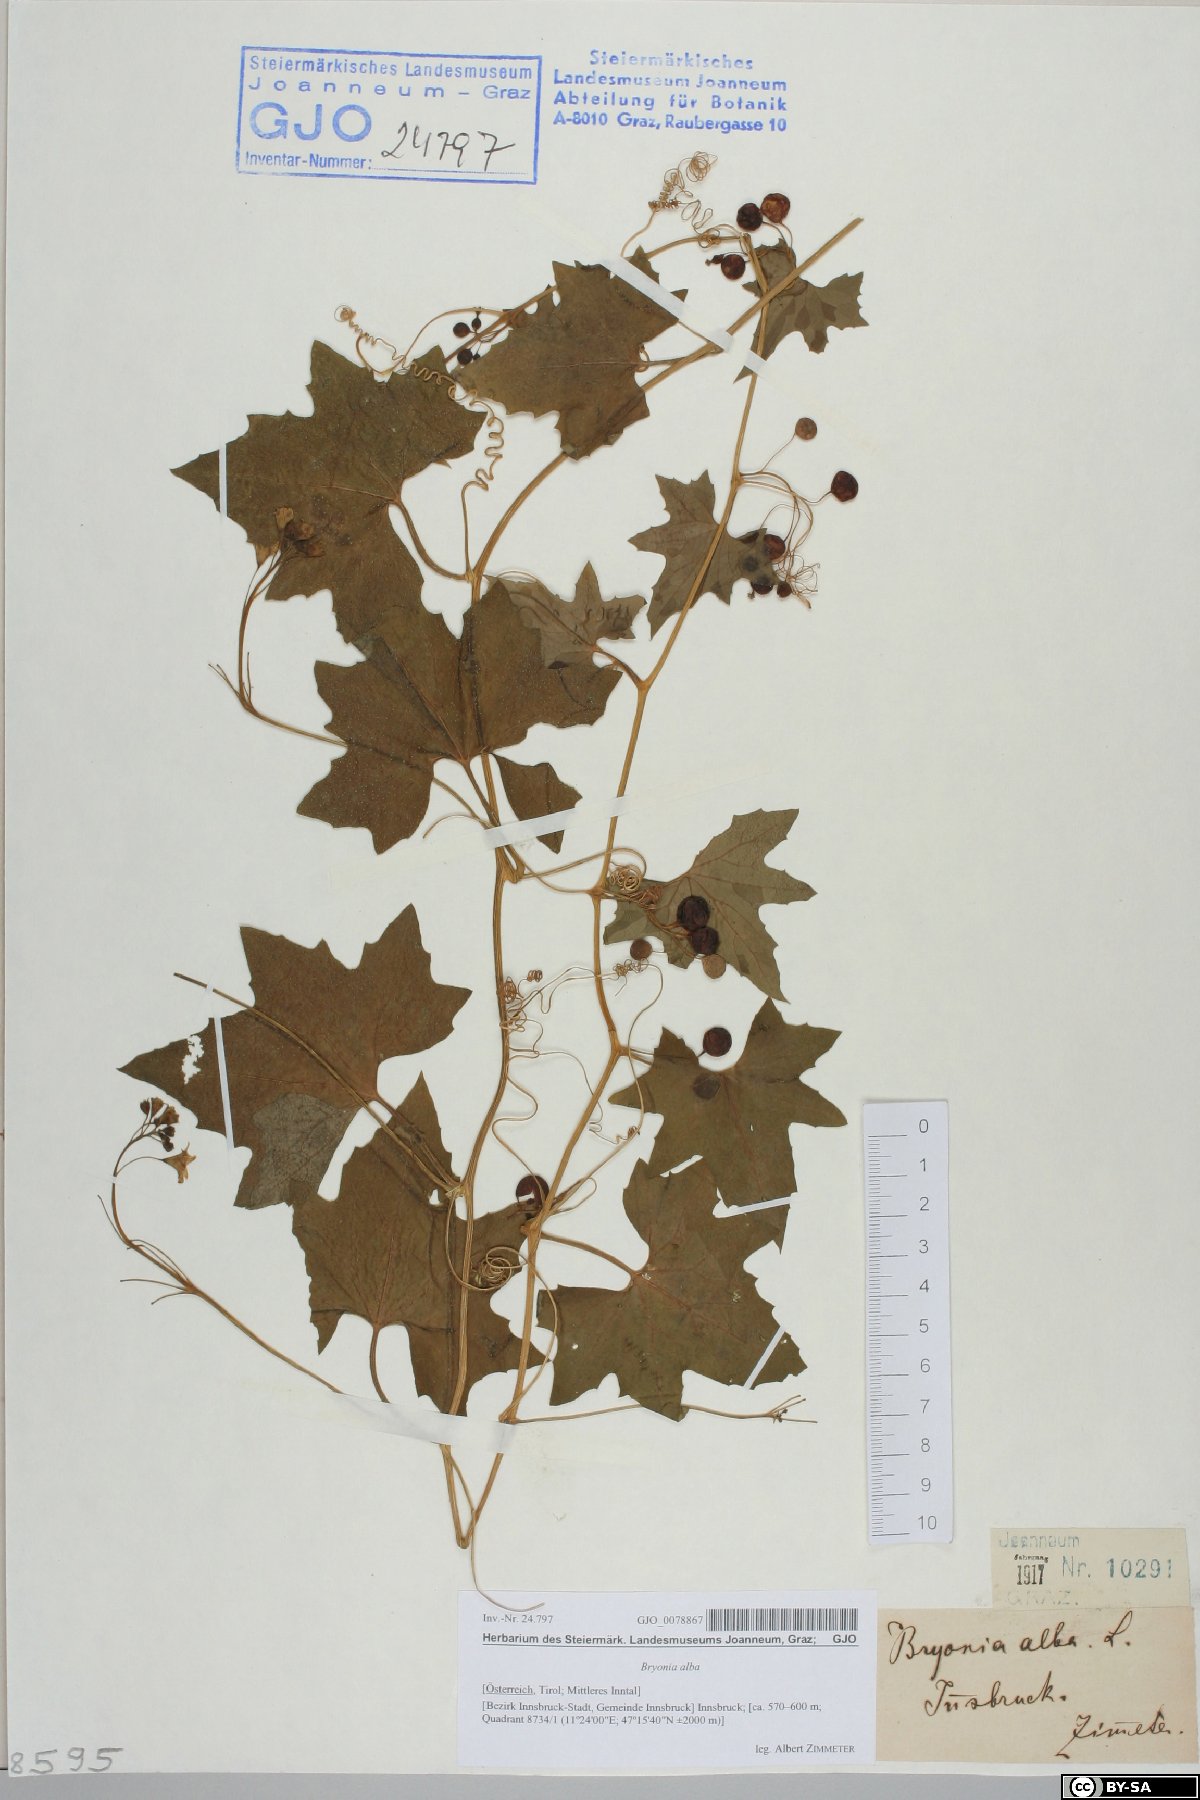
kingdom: Plantae
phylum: Tracheophyta
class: Magnoliopsida
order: Cucurbitales
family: Cucurbitaceae
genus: Bryonia
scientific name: Bryonia alba
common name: White bryony
